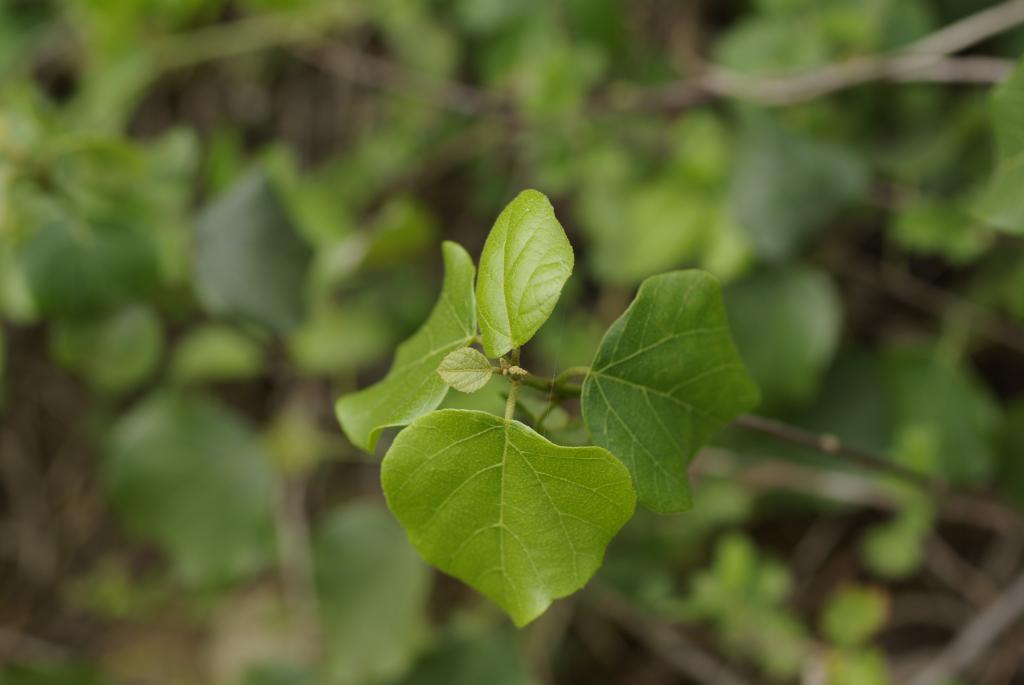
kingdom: Plantae
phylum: Tracheophyta
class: Magnoliopsida
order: Malpighiales
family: Euphorbiaceae
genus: Mallotus
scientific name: Mallotus repandus
